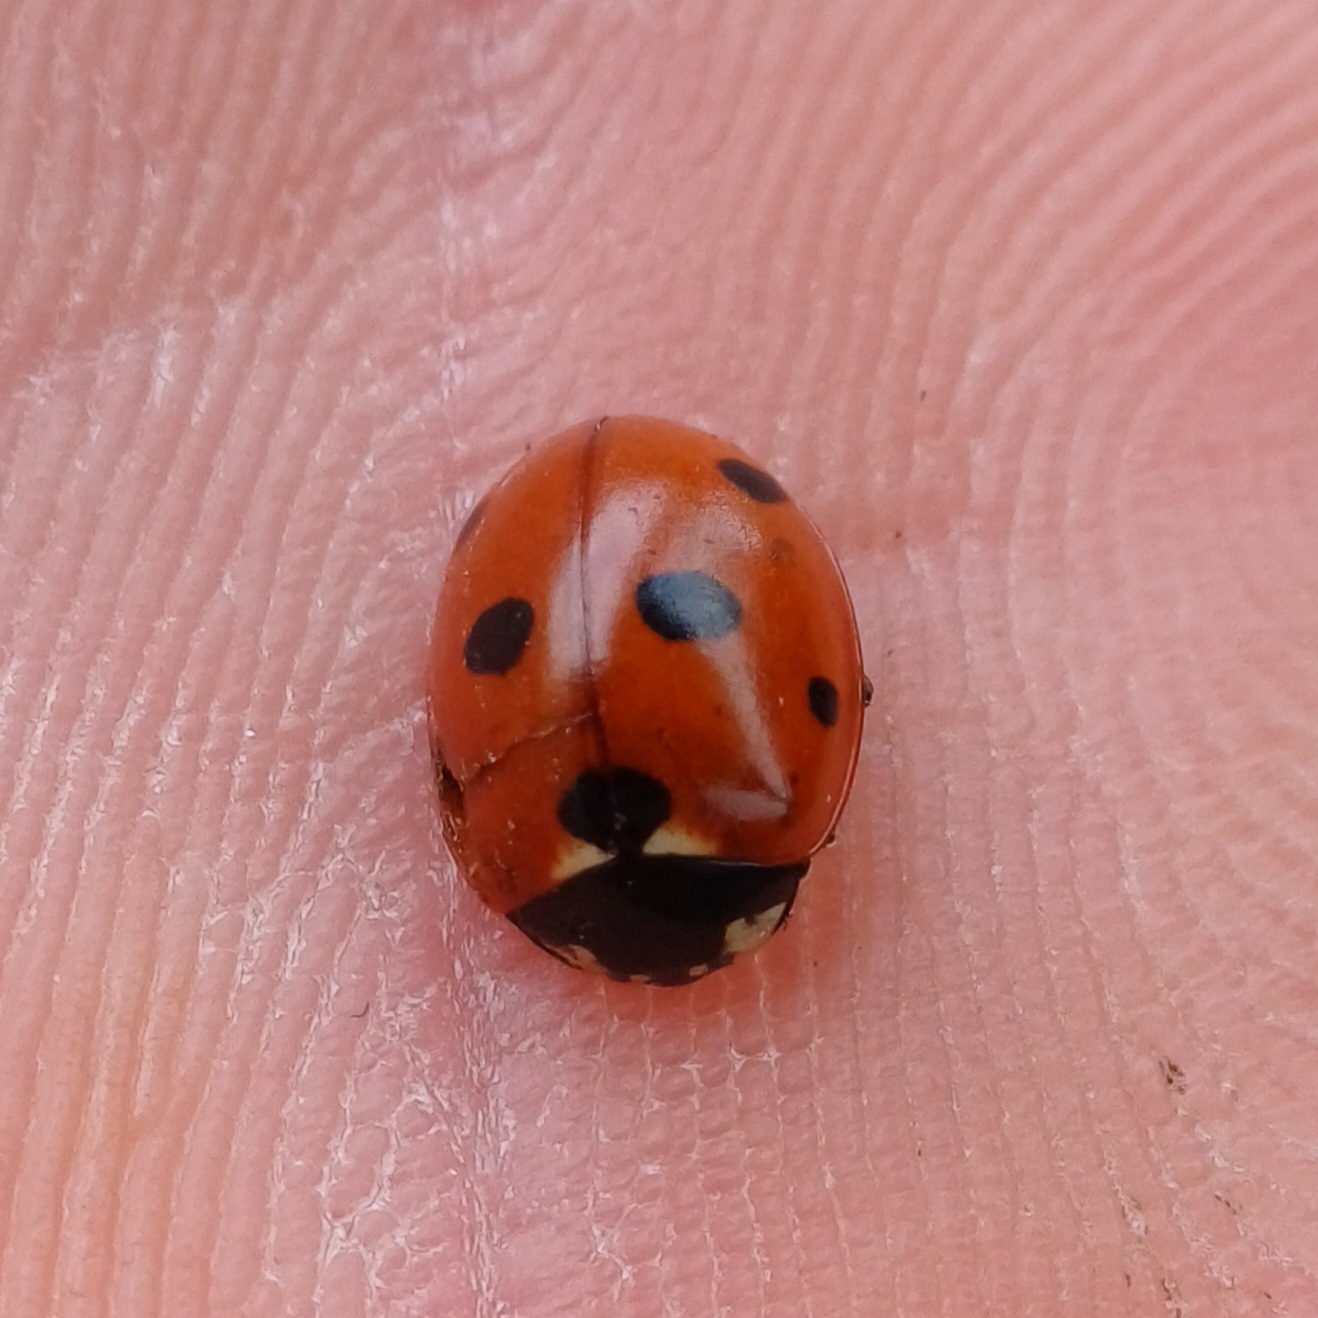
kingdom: Animalia
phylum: Arthropoda
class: Insecta
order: Coleoptera
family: Coccinellidae
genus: Coccinella
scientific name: Coccinella septempunctata
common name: Syvplettet mariehøne
